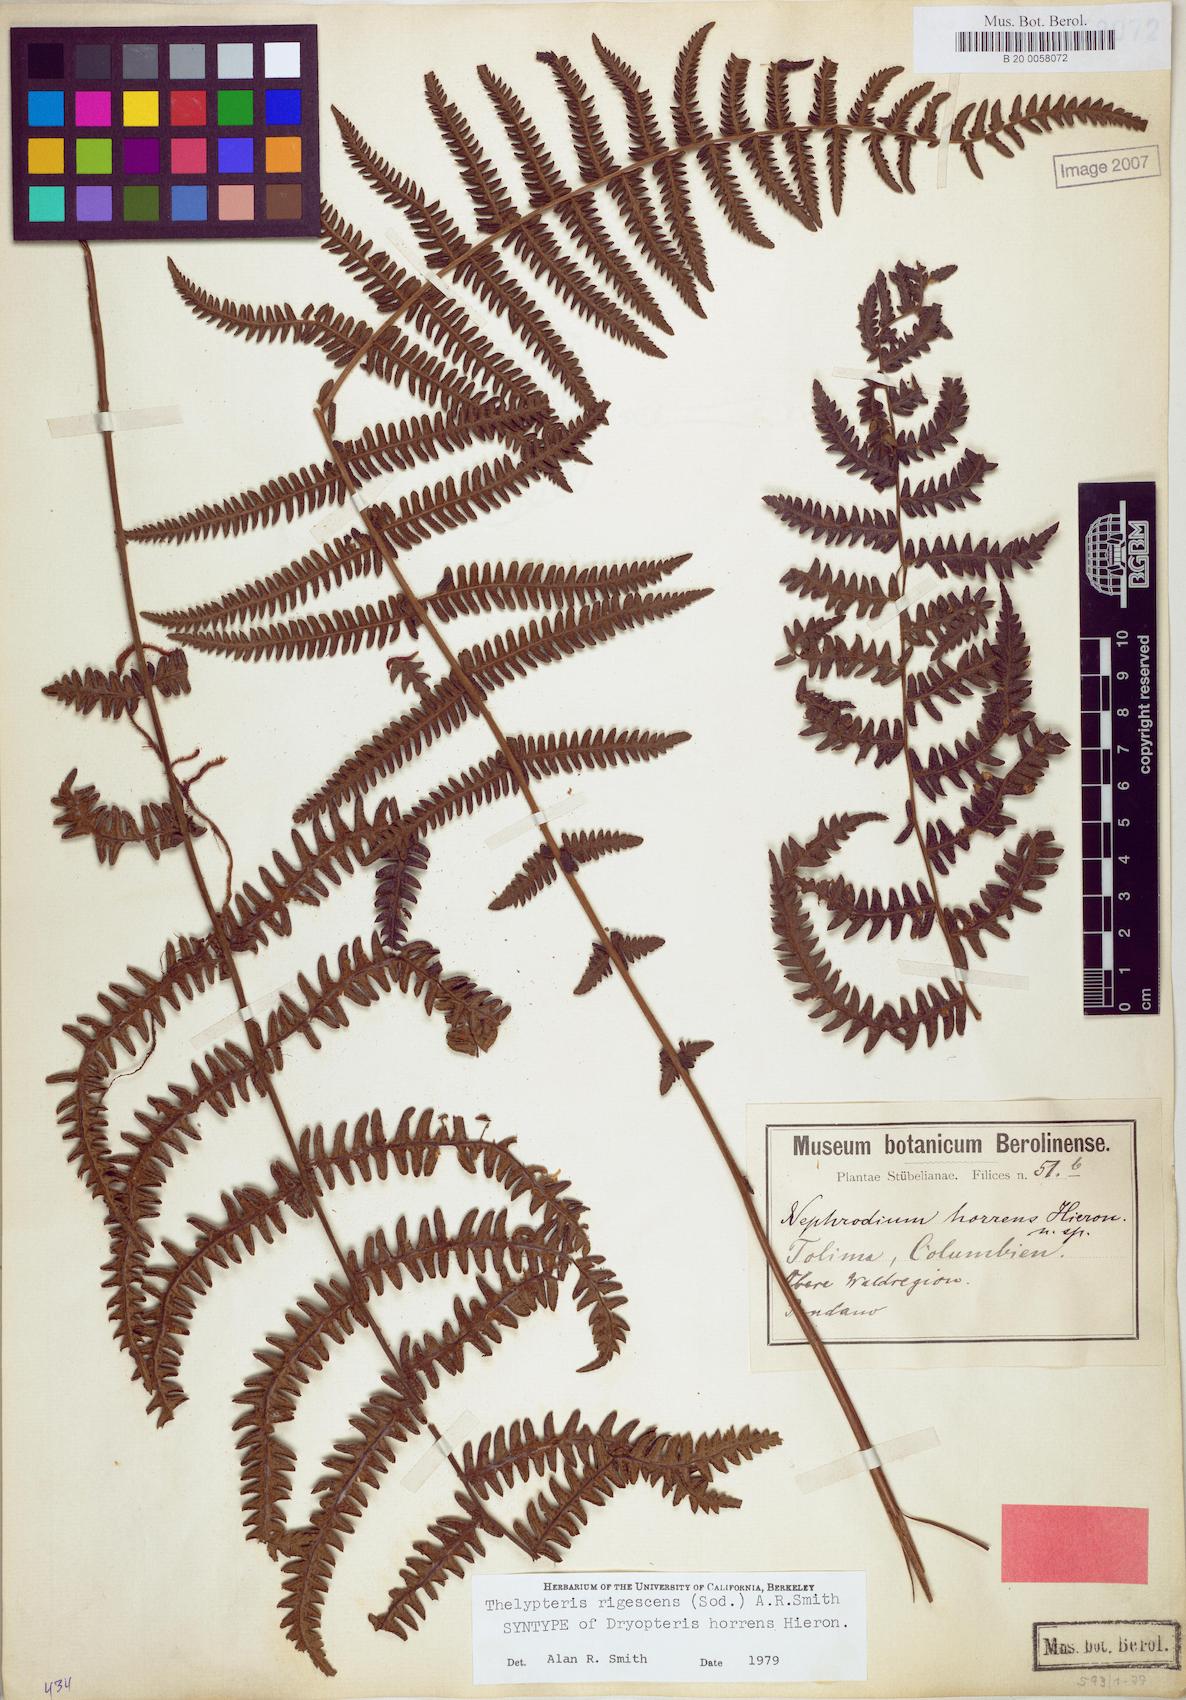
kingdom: Plantae
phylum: Tracheophyta
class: Polypodiopsida
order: Polypodiales
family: Thelypteridaceae
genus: Amauropelta
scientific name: Amauropelta rigescens
